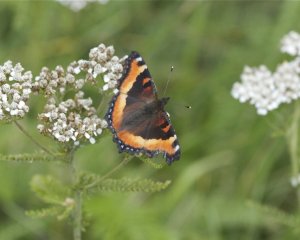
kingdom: Animalia
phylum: Arthropoda
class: Insecta
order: Lepidoptera
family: Nymphalidae
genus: Aglais
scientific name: Aglais milberti
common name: Milbert's Tortoiseshell
